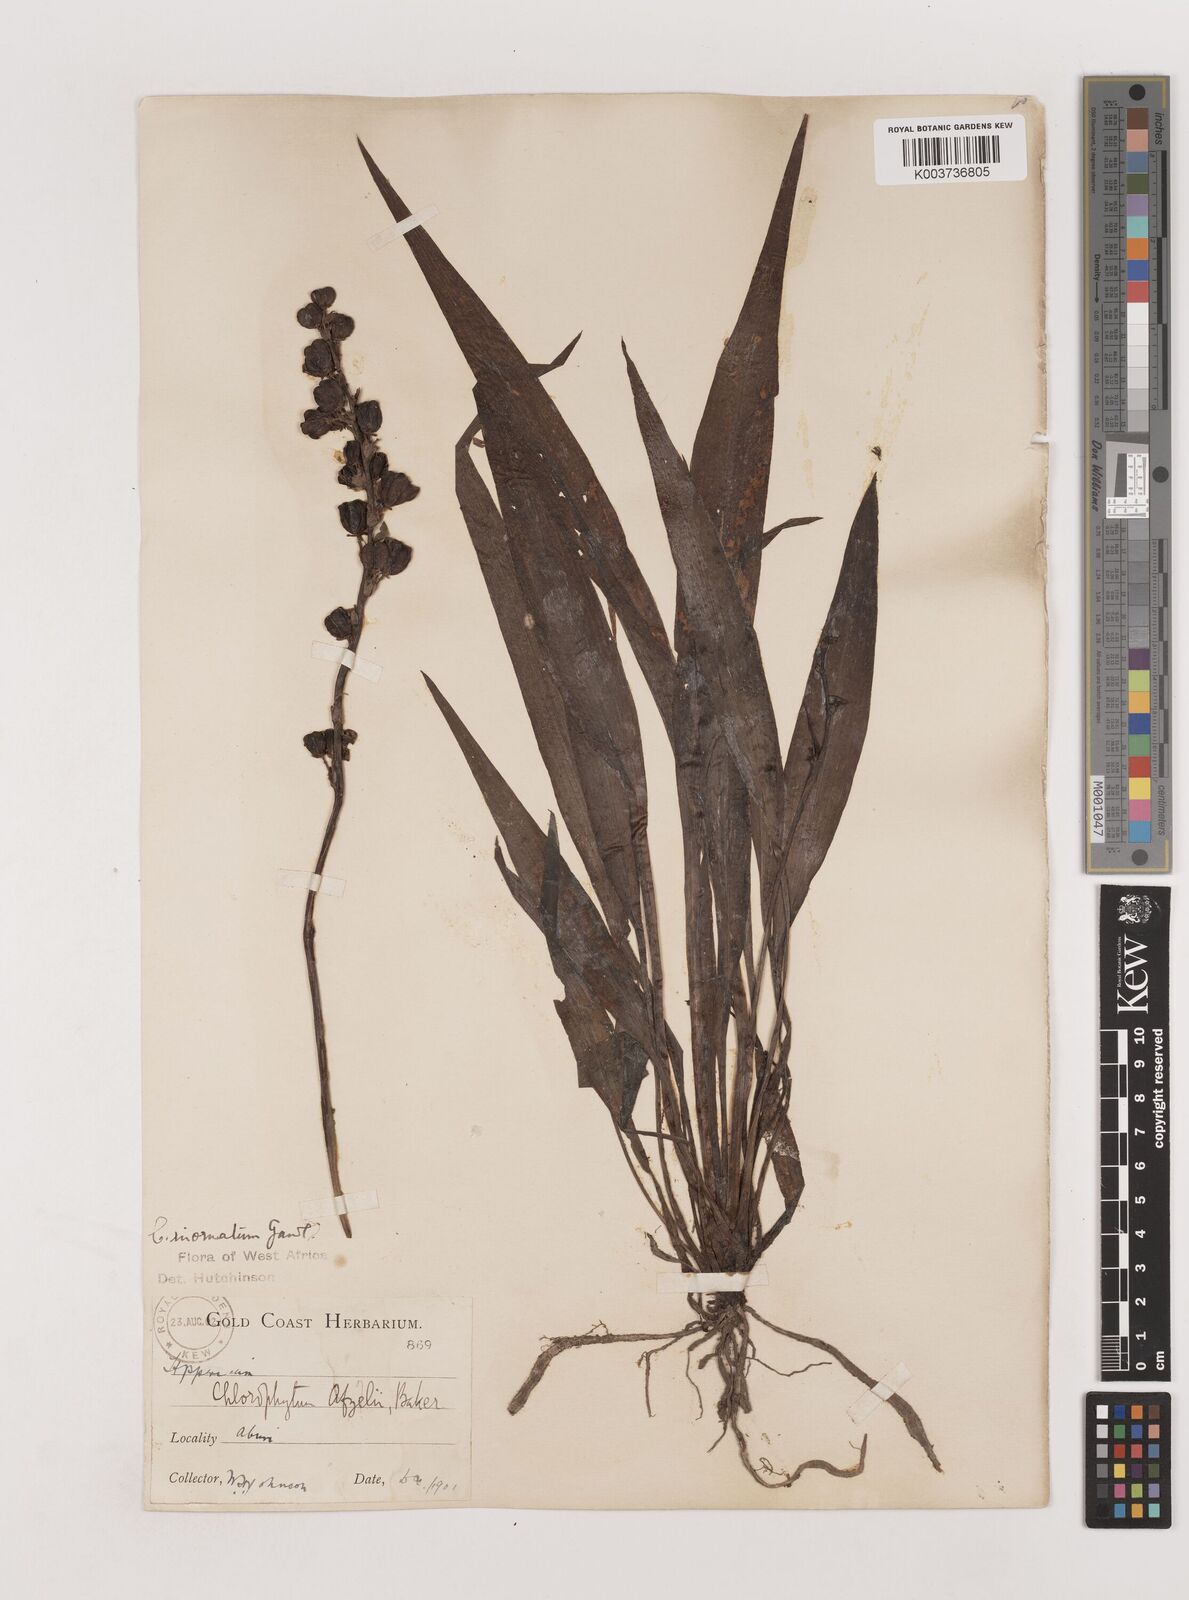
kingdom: Plantae
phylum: Tracheophyta
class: Liliopsida
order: Asparagales
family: Asparagaceae
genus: Chlorophytum
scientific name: Chlorophytum inornatum
